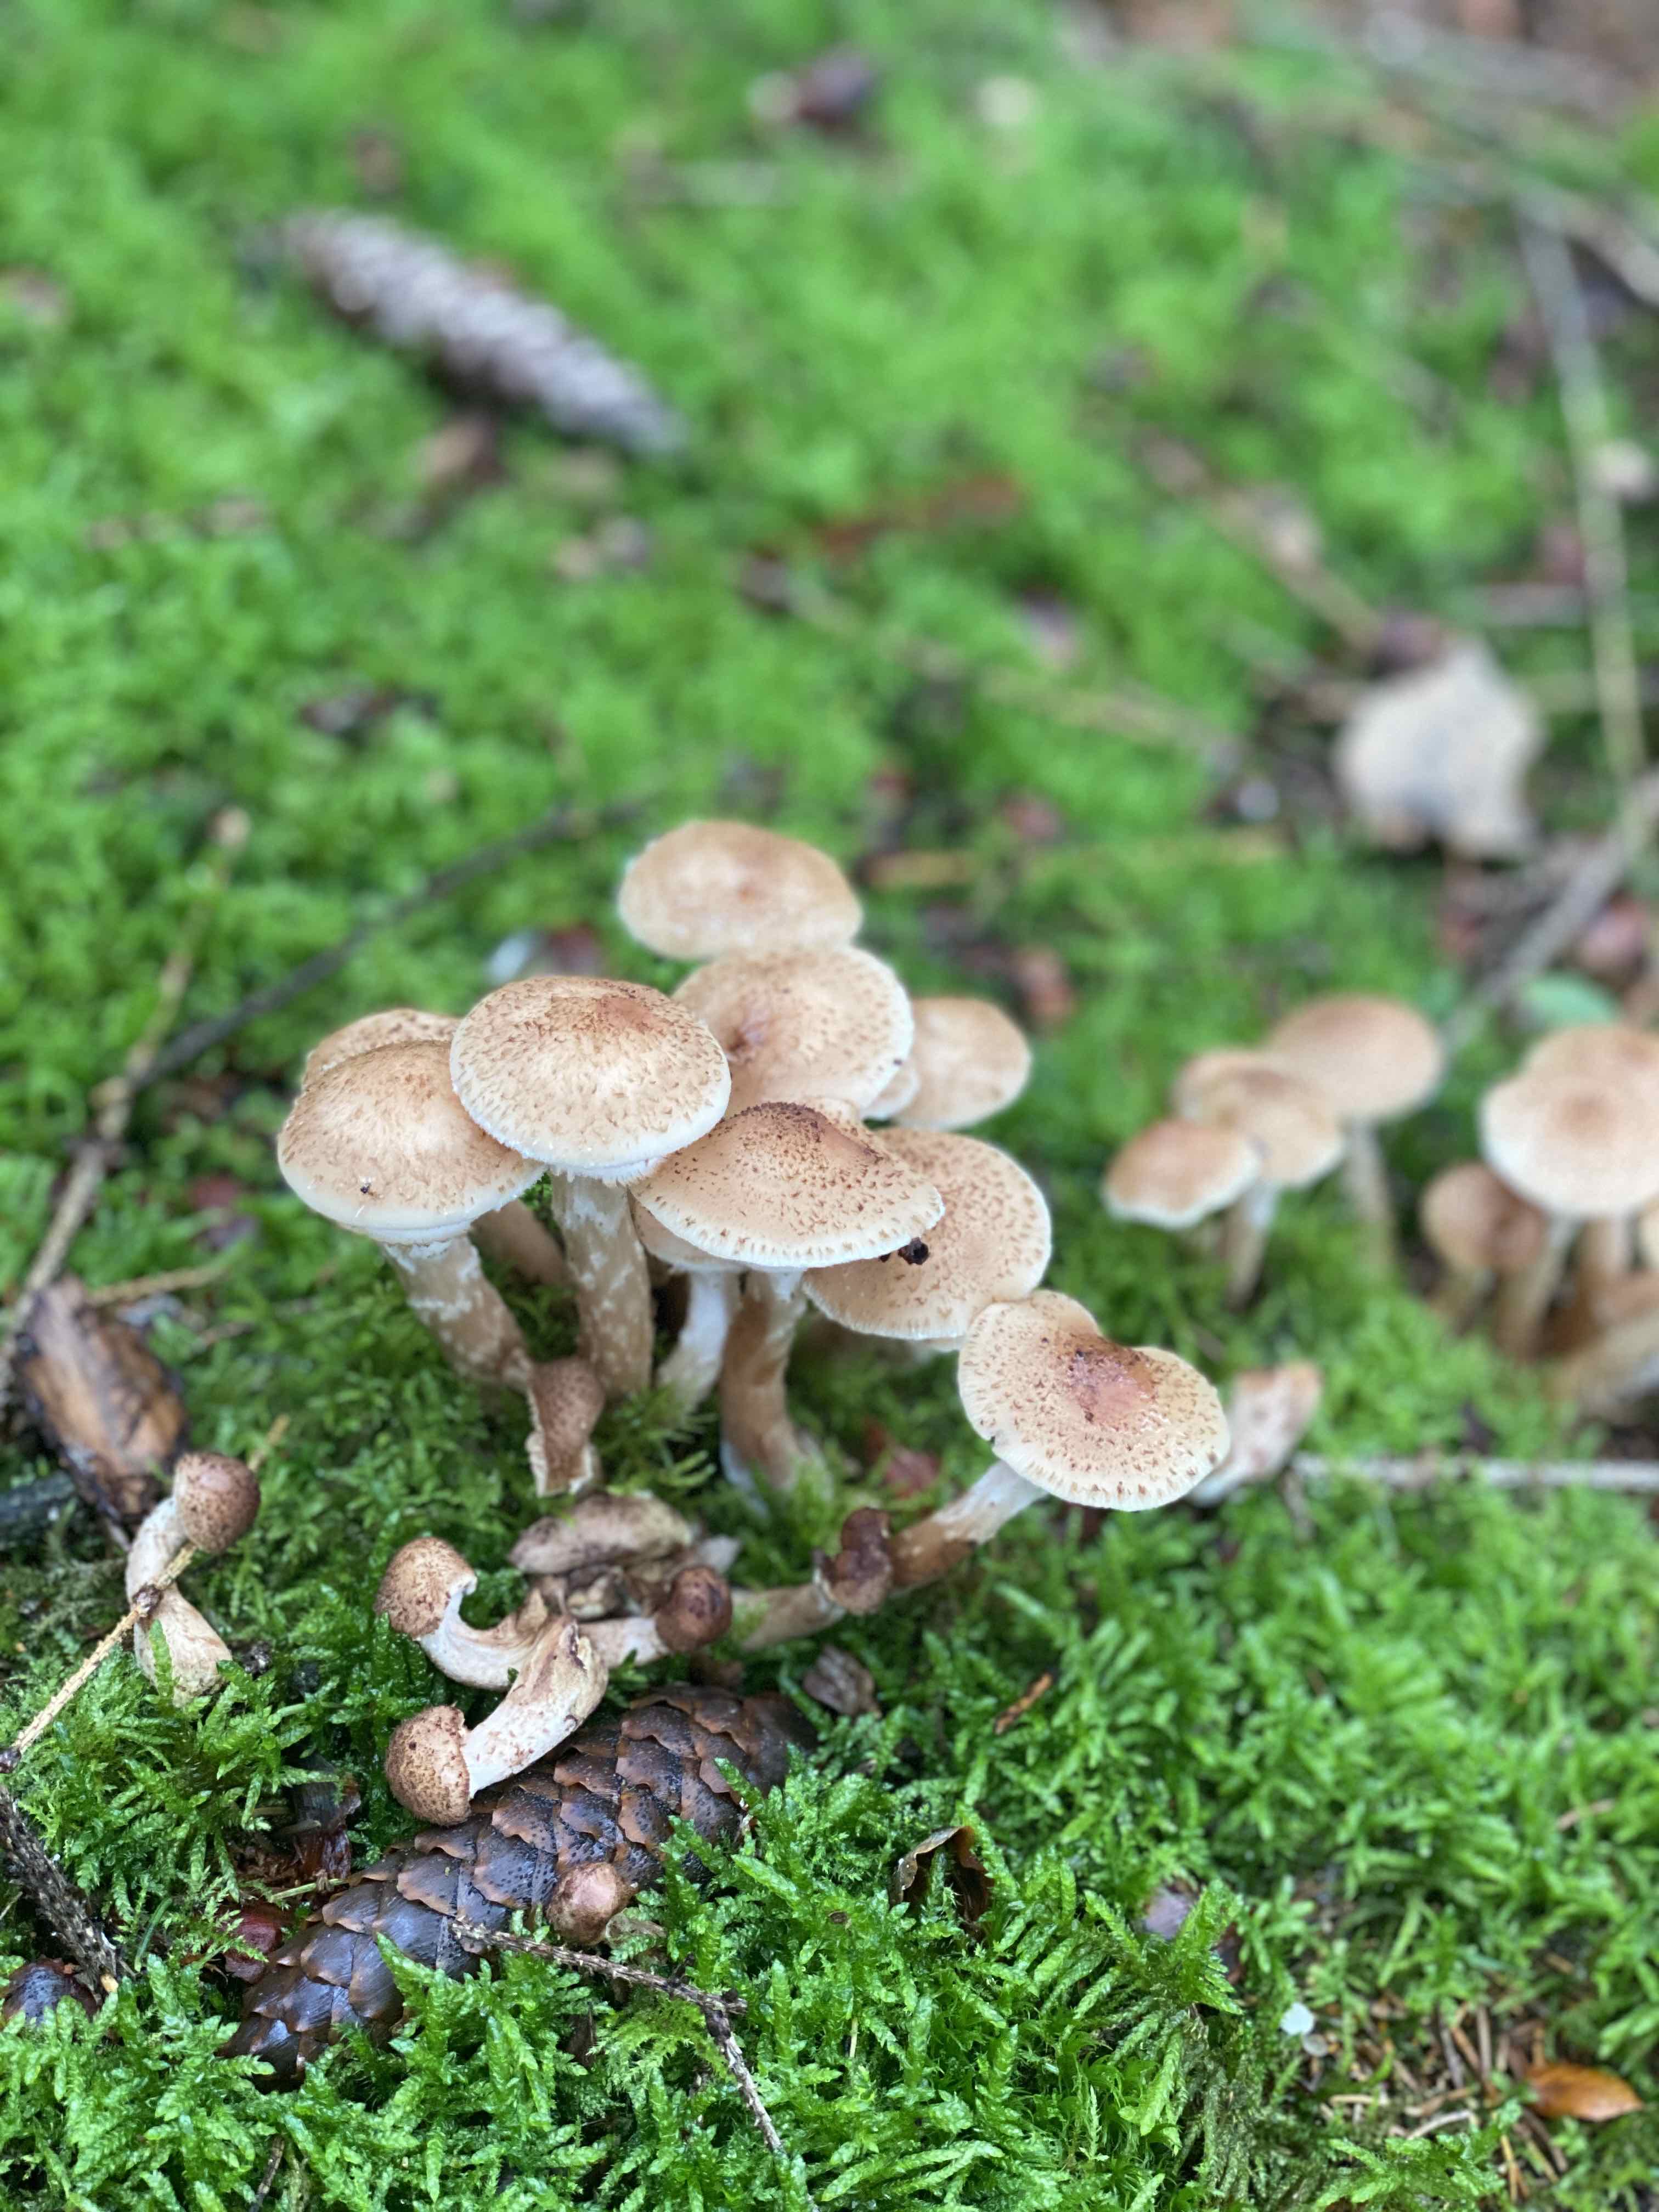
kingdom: Fungi
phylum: Basidiomycota
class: Agaricomycetes
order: Agaricales
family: Physalacriaceae
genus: Armillaria
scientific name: Armillaria ostoyae
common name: mørk honningsvamp
